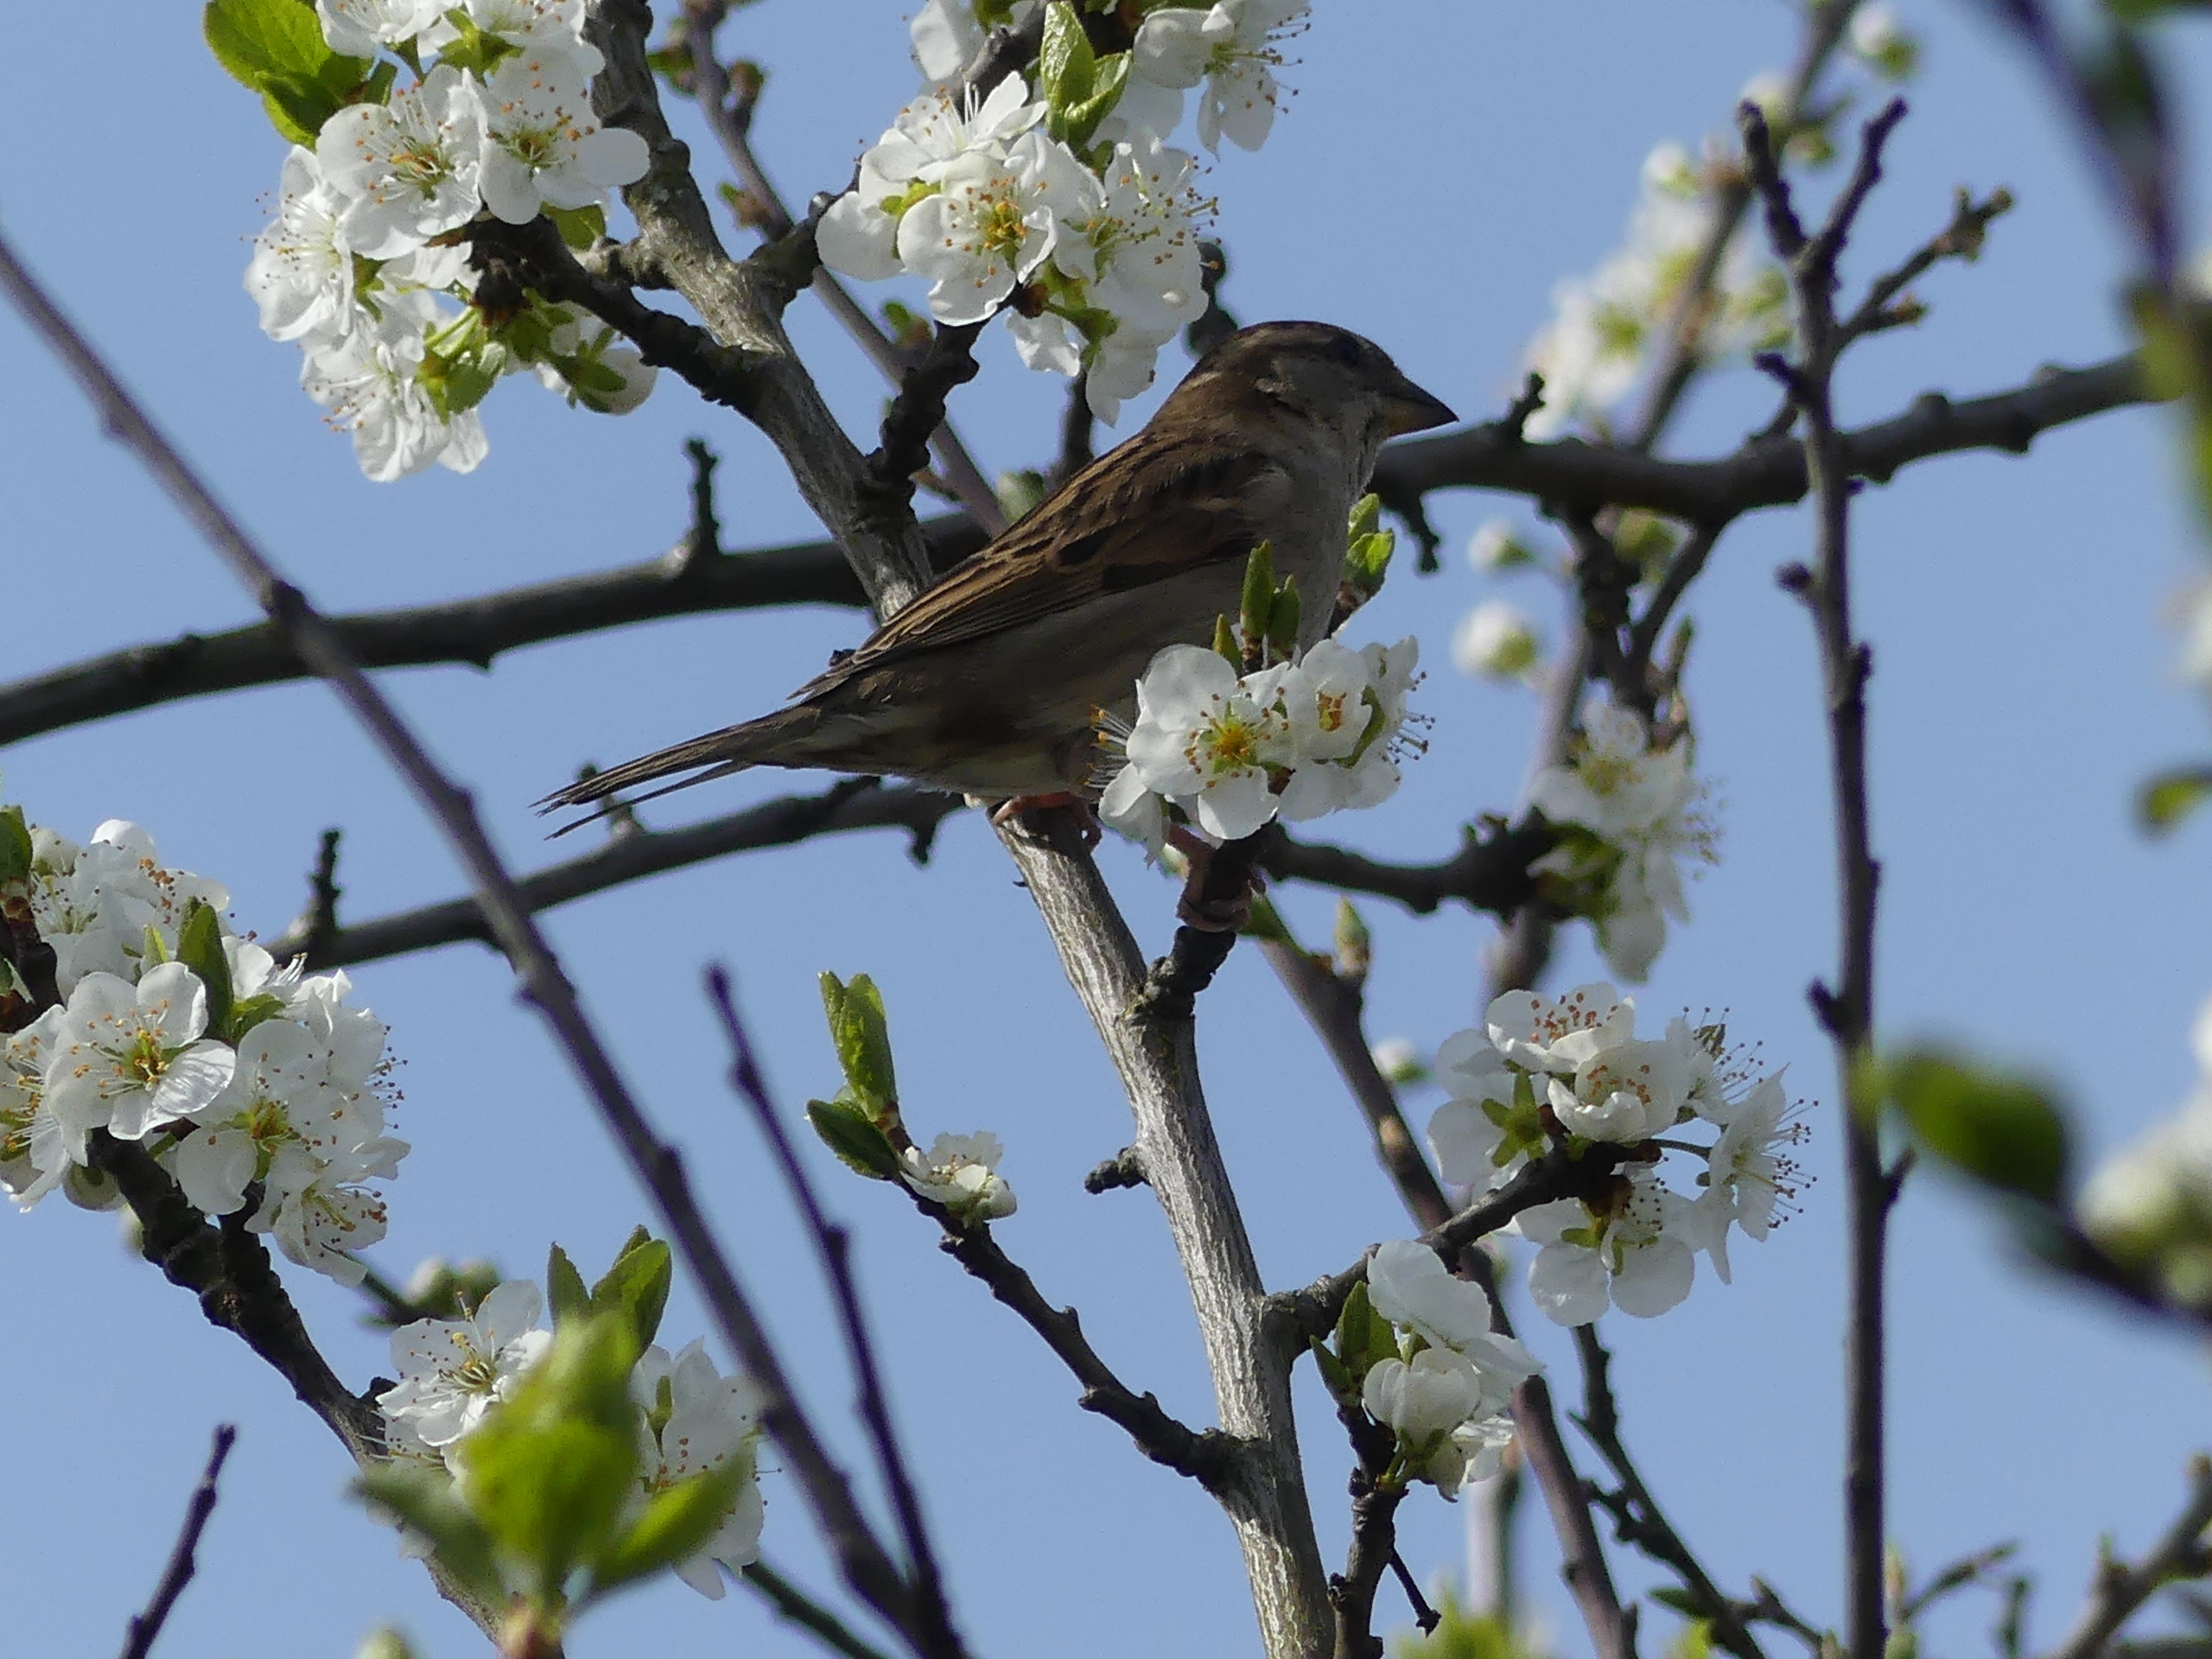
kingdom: Animalia
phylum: Chordata
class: Aves
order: Passeriformes
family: Passeridae
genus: Passer
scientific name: Passer domesticus
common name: Gråspurv
